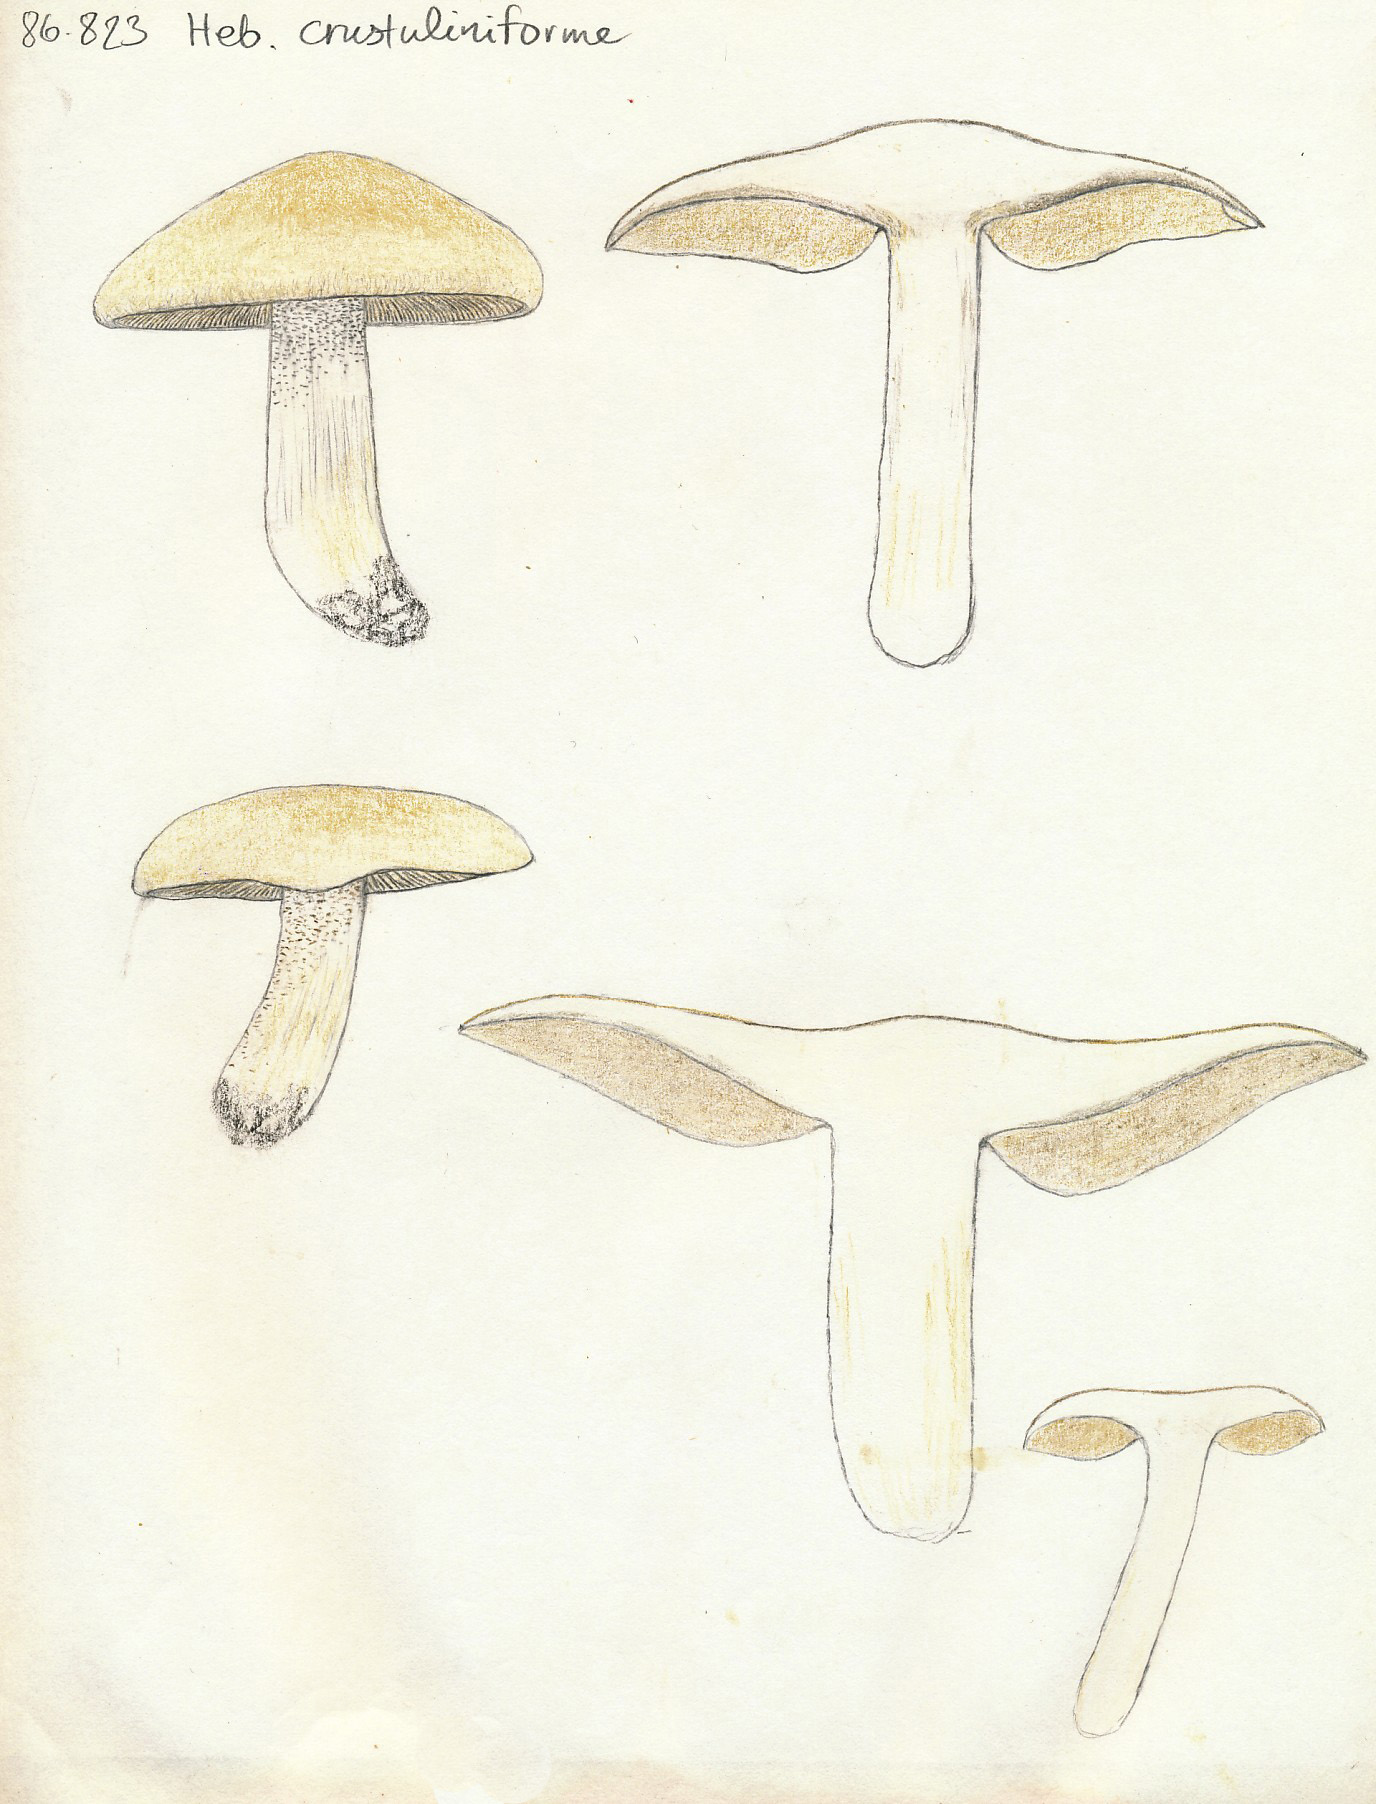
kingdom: Fungi
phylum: Basidiomycota
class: Agaricomycetes
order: Agaricales
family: Hymenogastraceae
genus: Hebeloma
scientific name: Hebeloma crustuliniforme
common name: almindelig tåreblad
